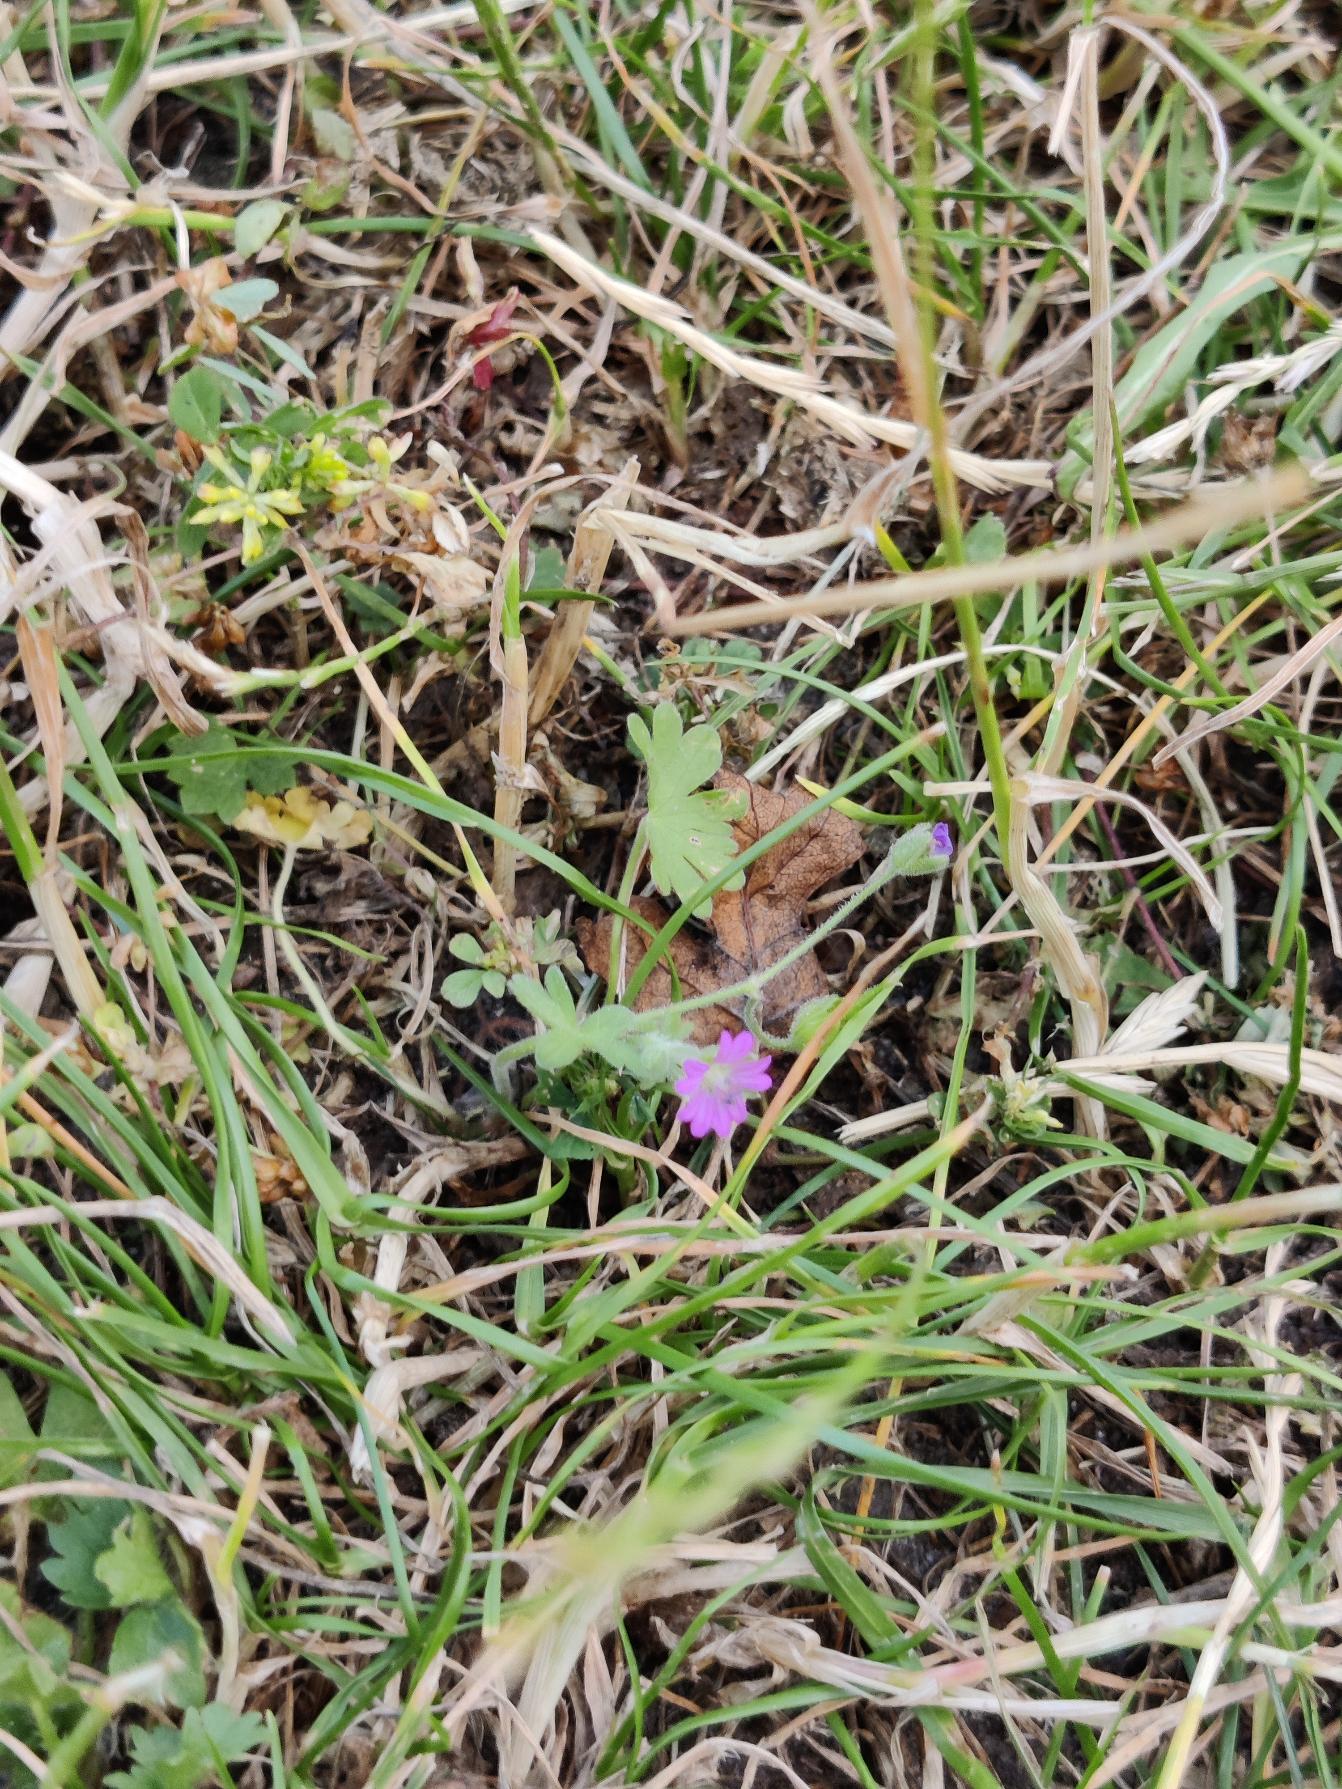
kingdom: Plantae
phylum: Tracheophyta
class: Magnoliopsida
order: Geraniales
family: Geraniaceae
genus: Geranium
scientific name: Geranium molle
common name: Blød storkenæb
